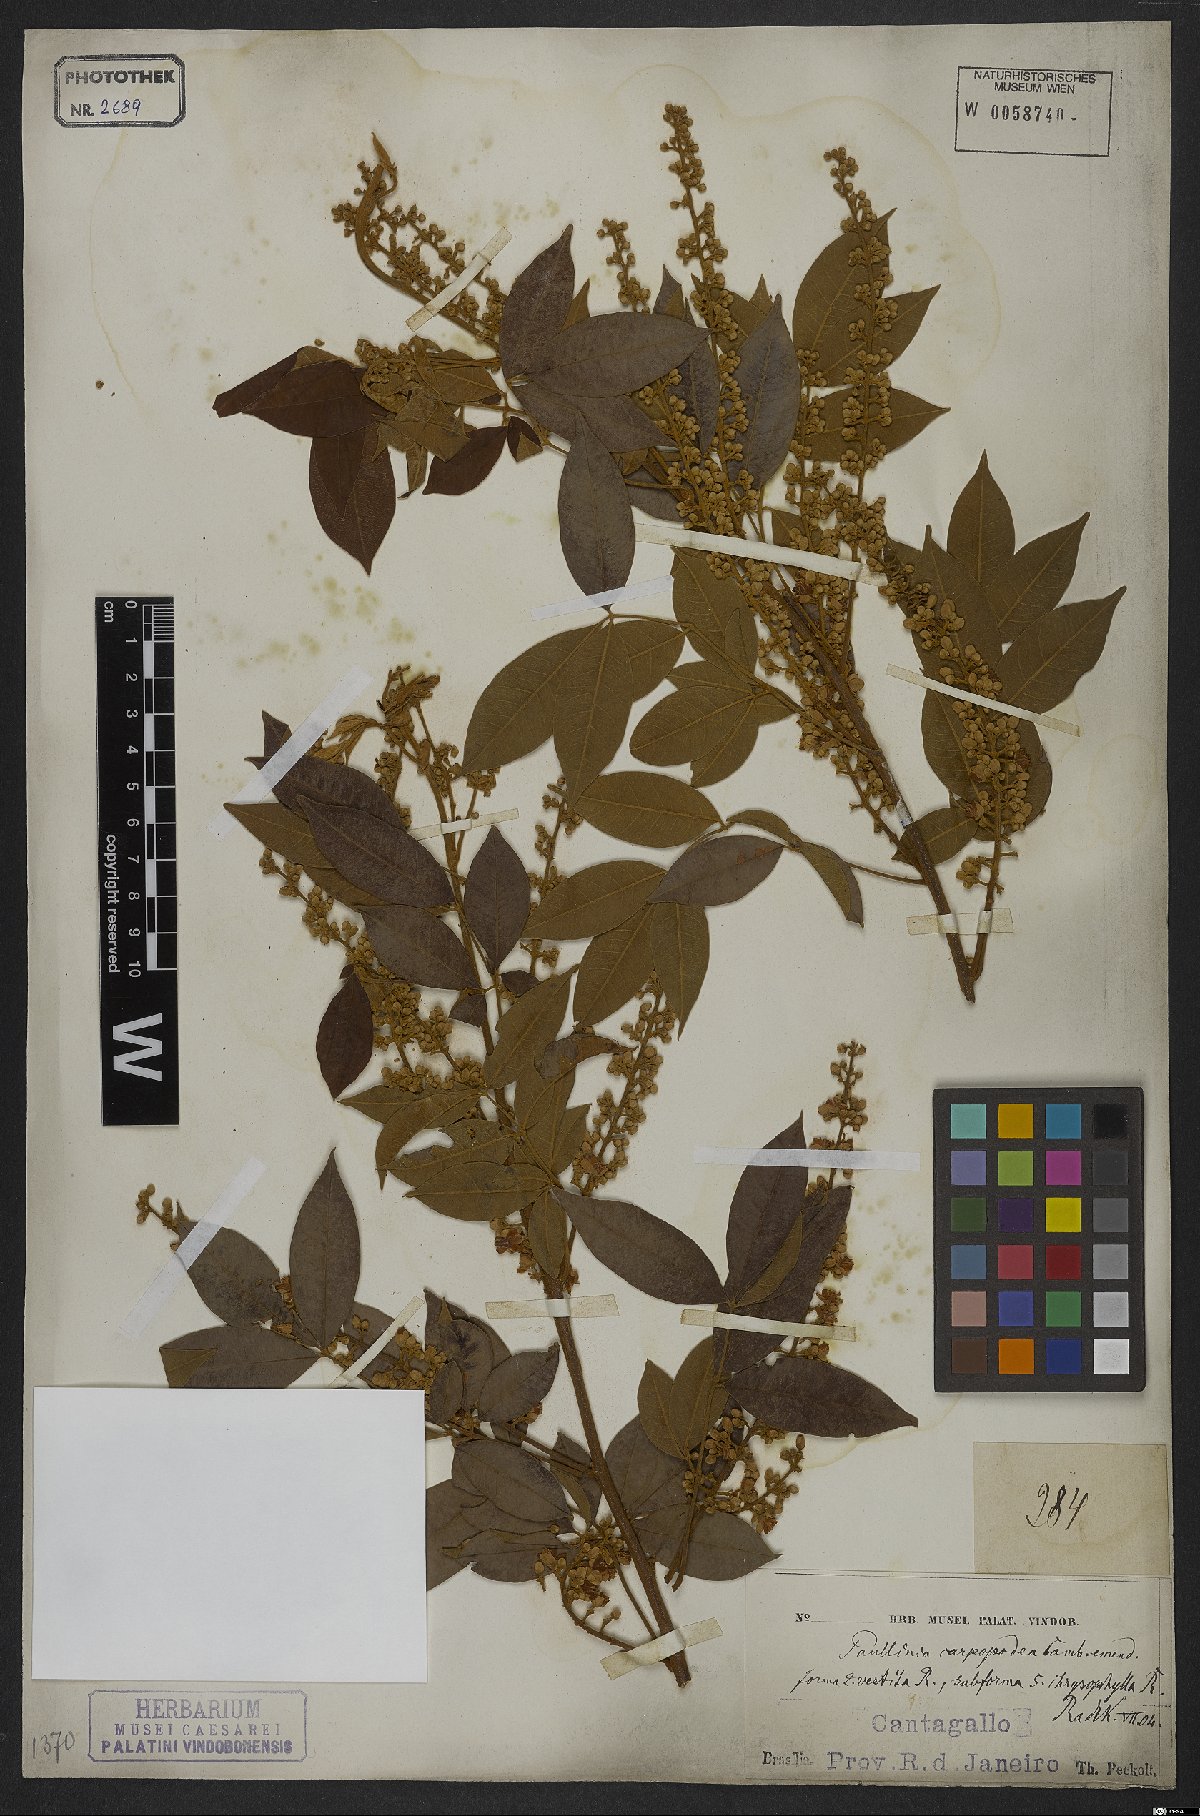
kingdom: Plantae
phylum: Tracheophyta
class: Magnoliopsida
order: Sapindales
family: Sapindaceae
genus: Paullinia
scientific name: Paullinia carpopoda
